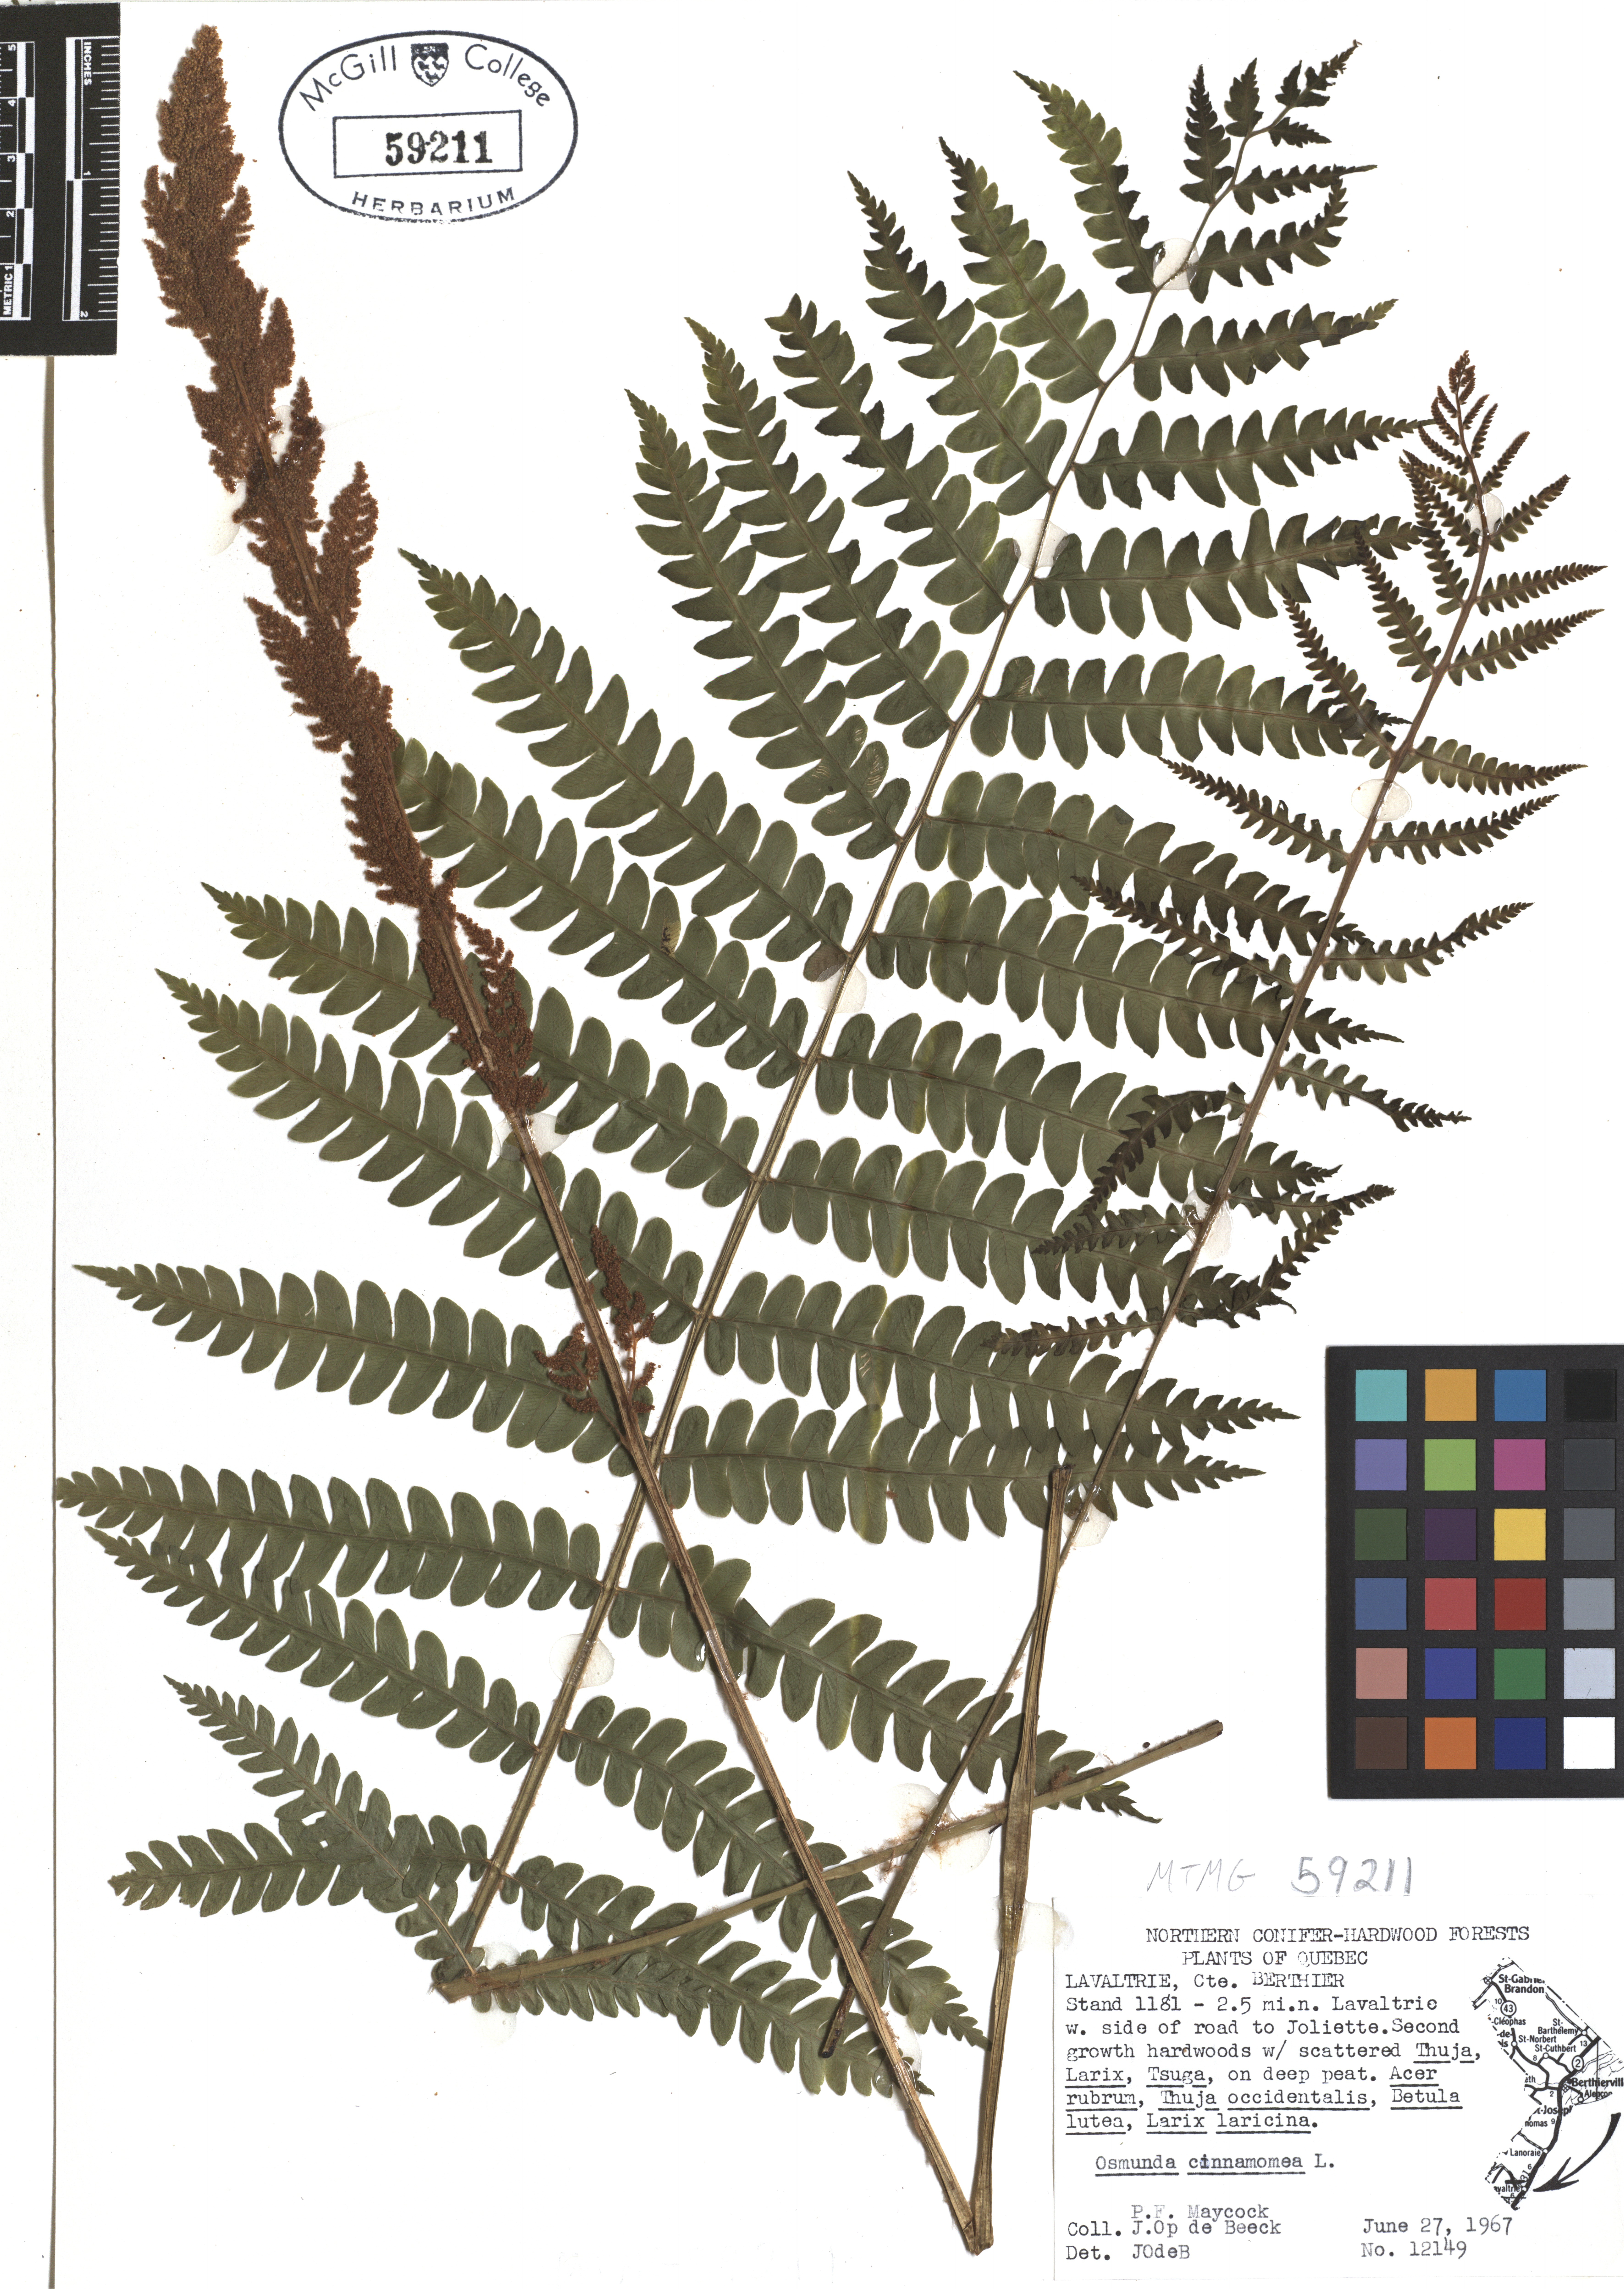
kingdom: Plantae
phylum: Tracheophyta
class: Polypodiopsida
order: Osmundales
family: Osmundaceae
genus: Osmundastrum
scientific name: Osmundastrum cinnamomeum
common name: Cinnamon fern
